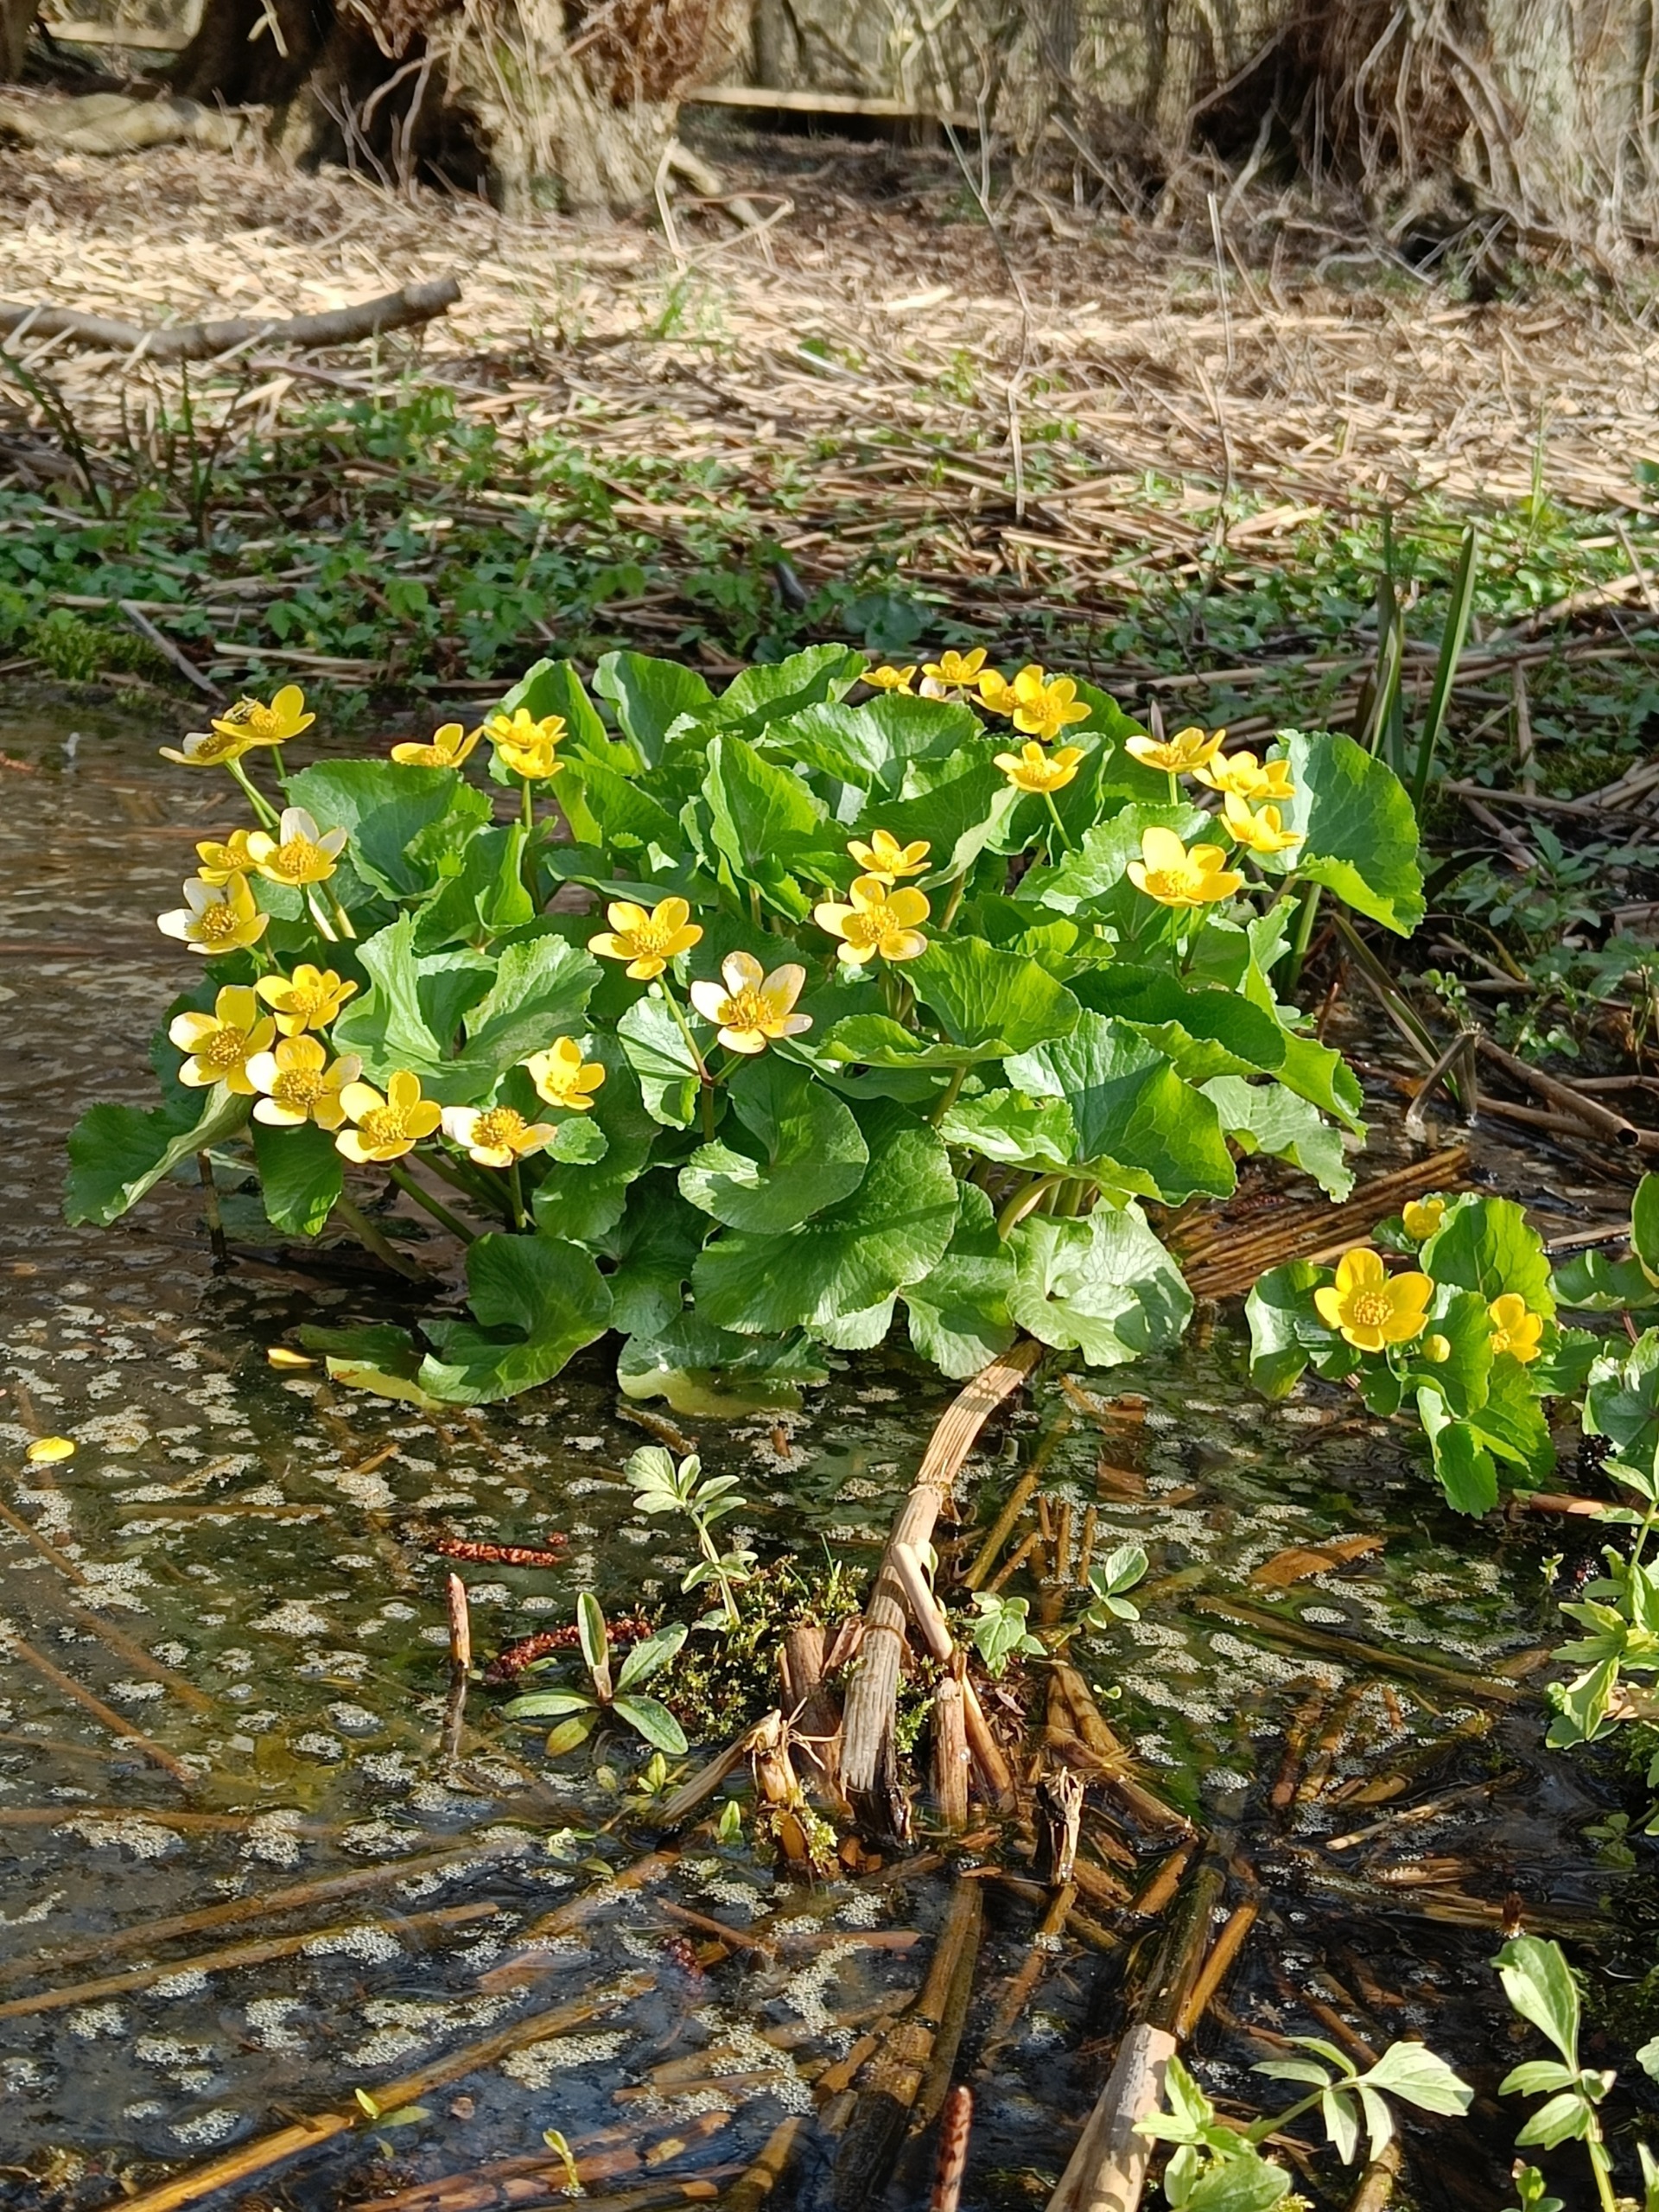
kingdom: Plantae
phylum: Tracheophyta
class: Magnoliopsida
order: Ranunculales
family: Ranunculaceae
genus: Caltha
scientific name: Caltha palustris
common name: Eng-kabbeleje
